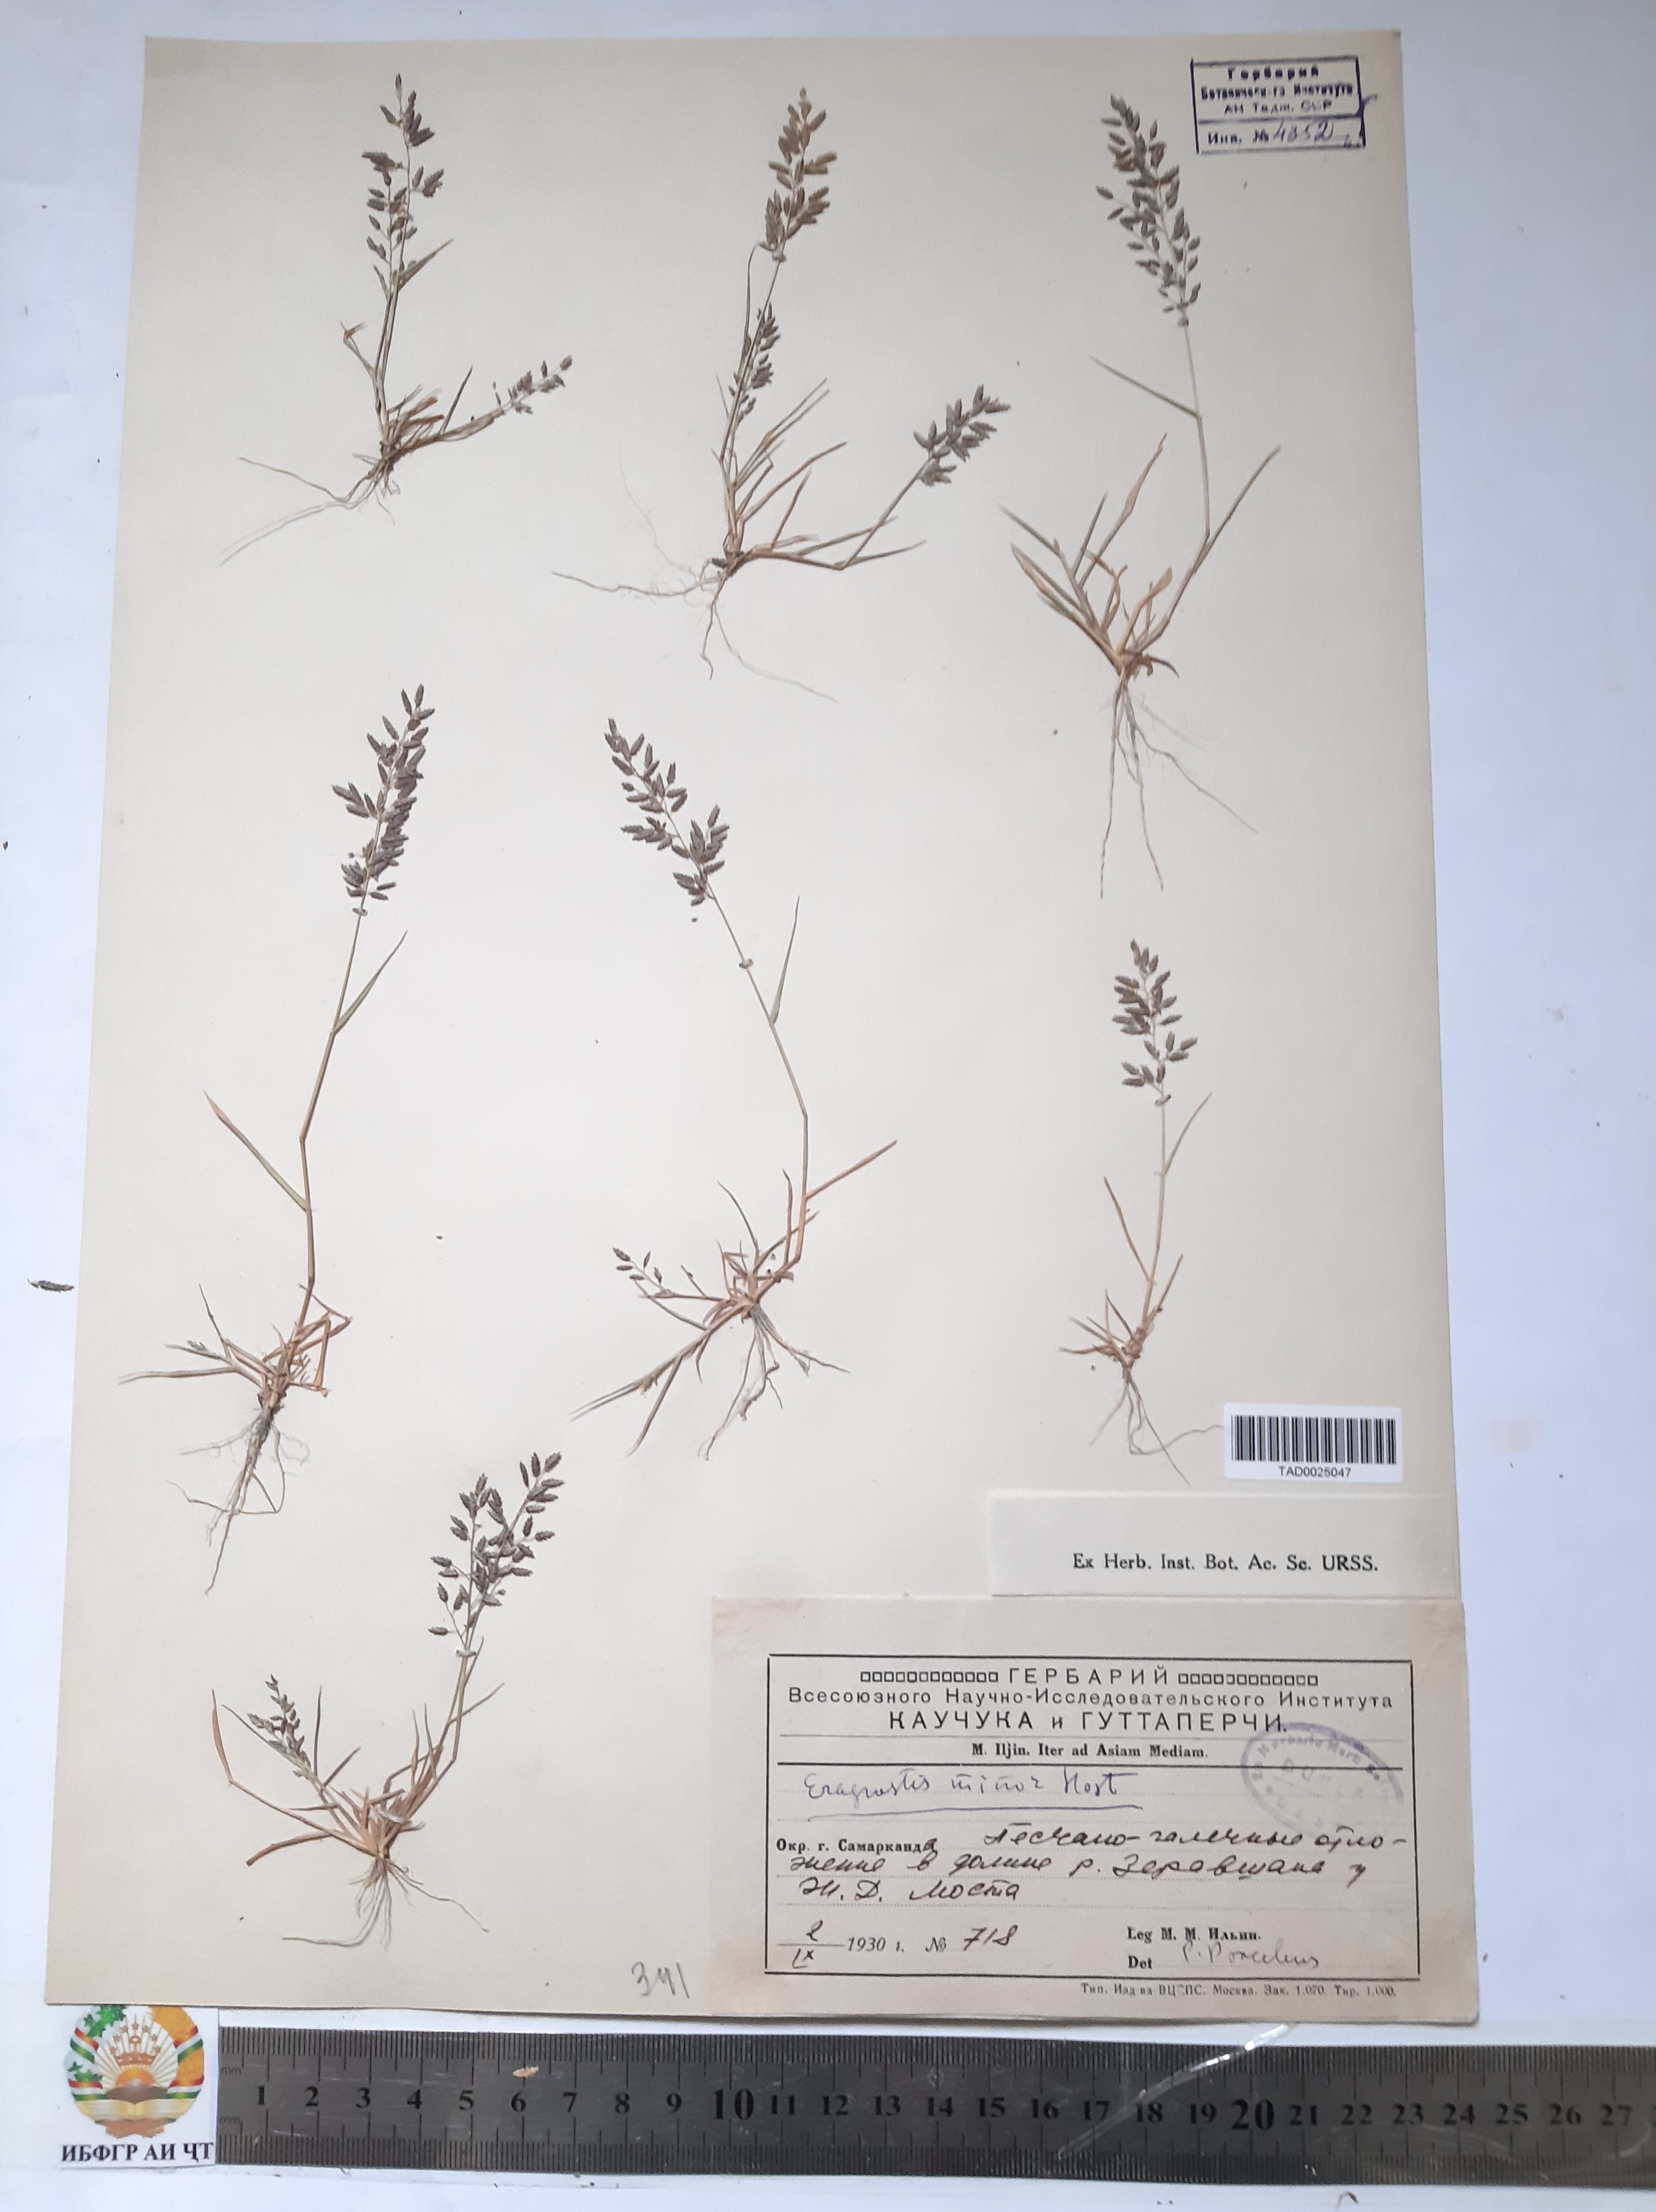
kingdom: Plantae
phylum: Tracheophyta
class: Liliopsida
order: Poales
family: Poaceae
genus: Eragrostis
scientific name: Eragrostis minor
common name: Small love-grass
